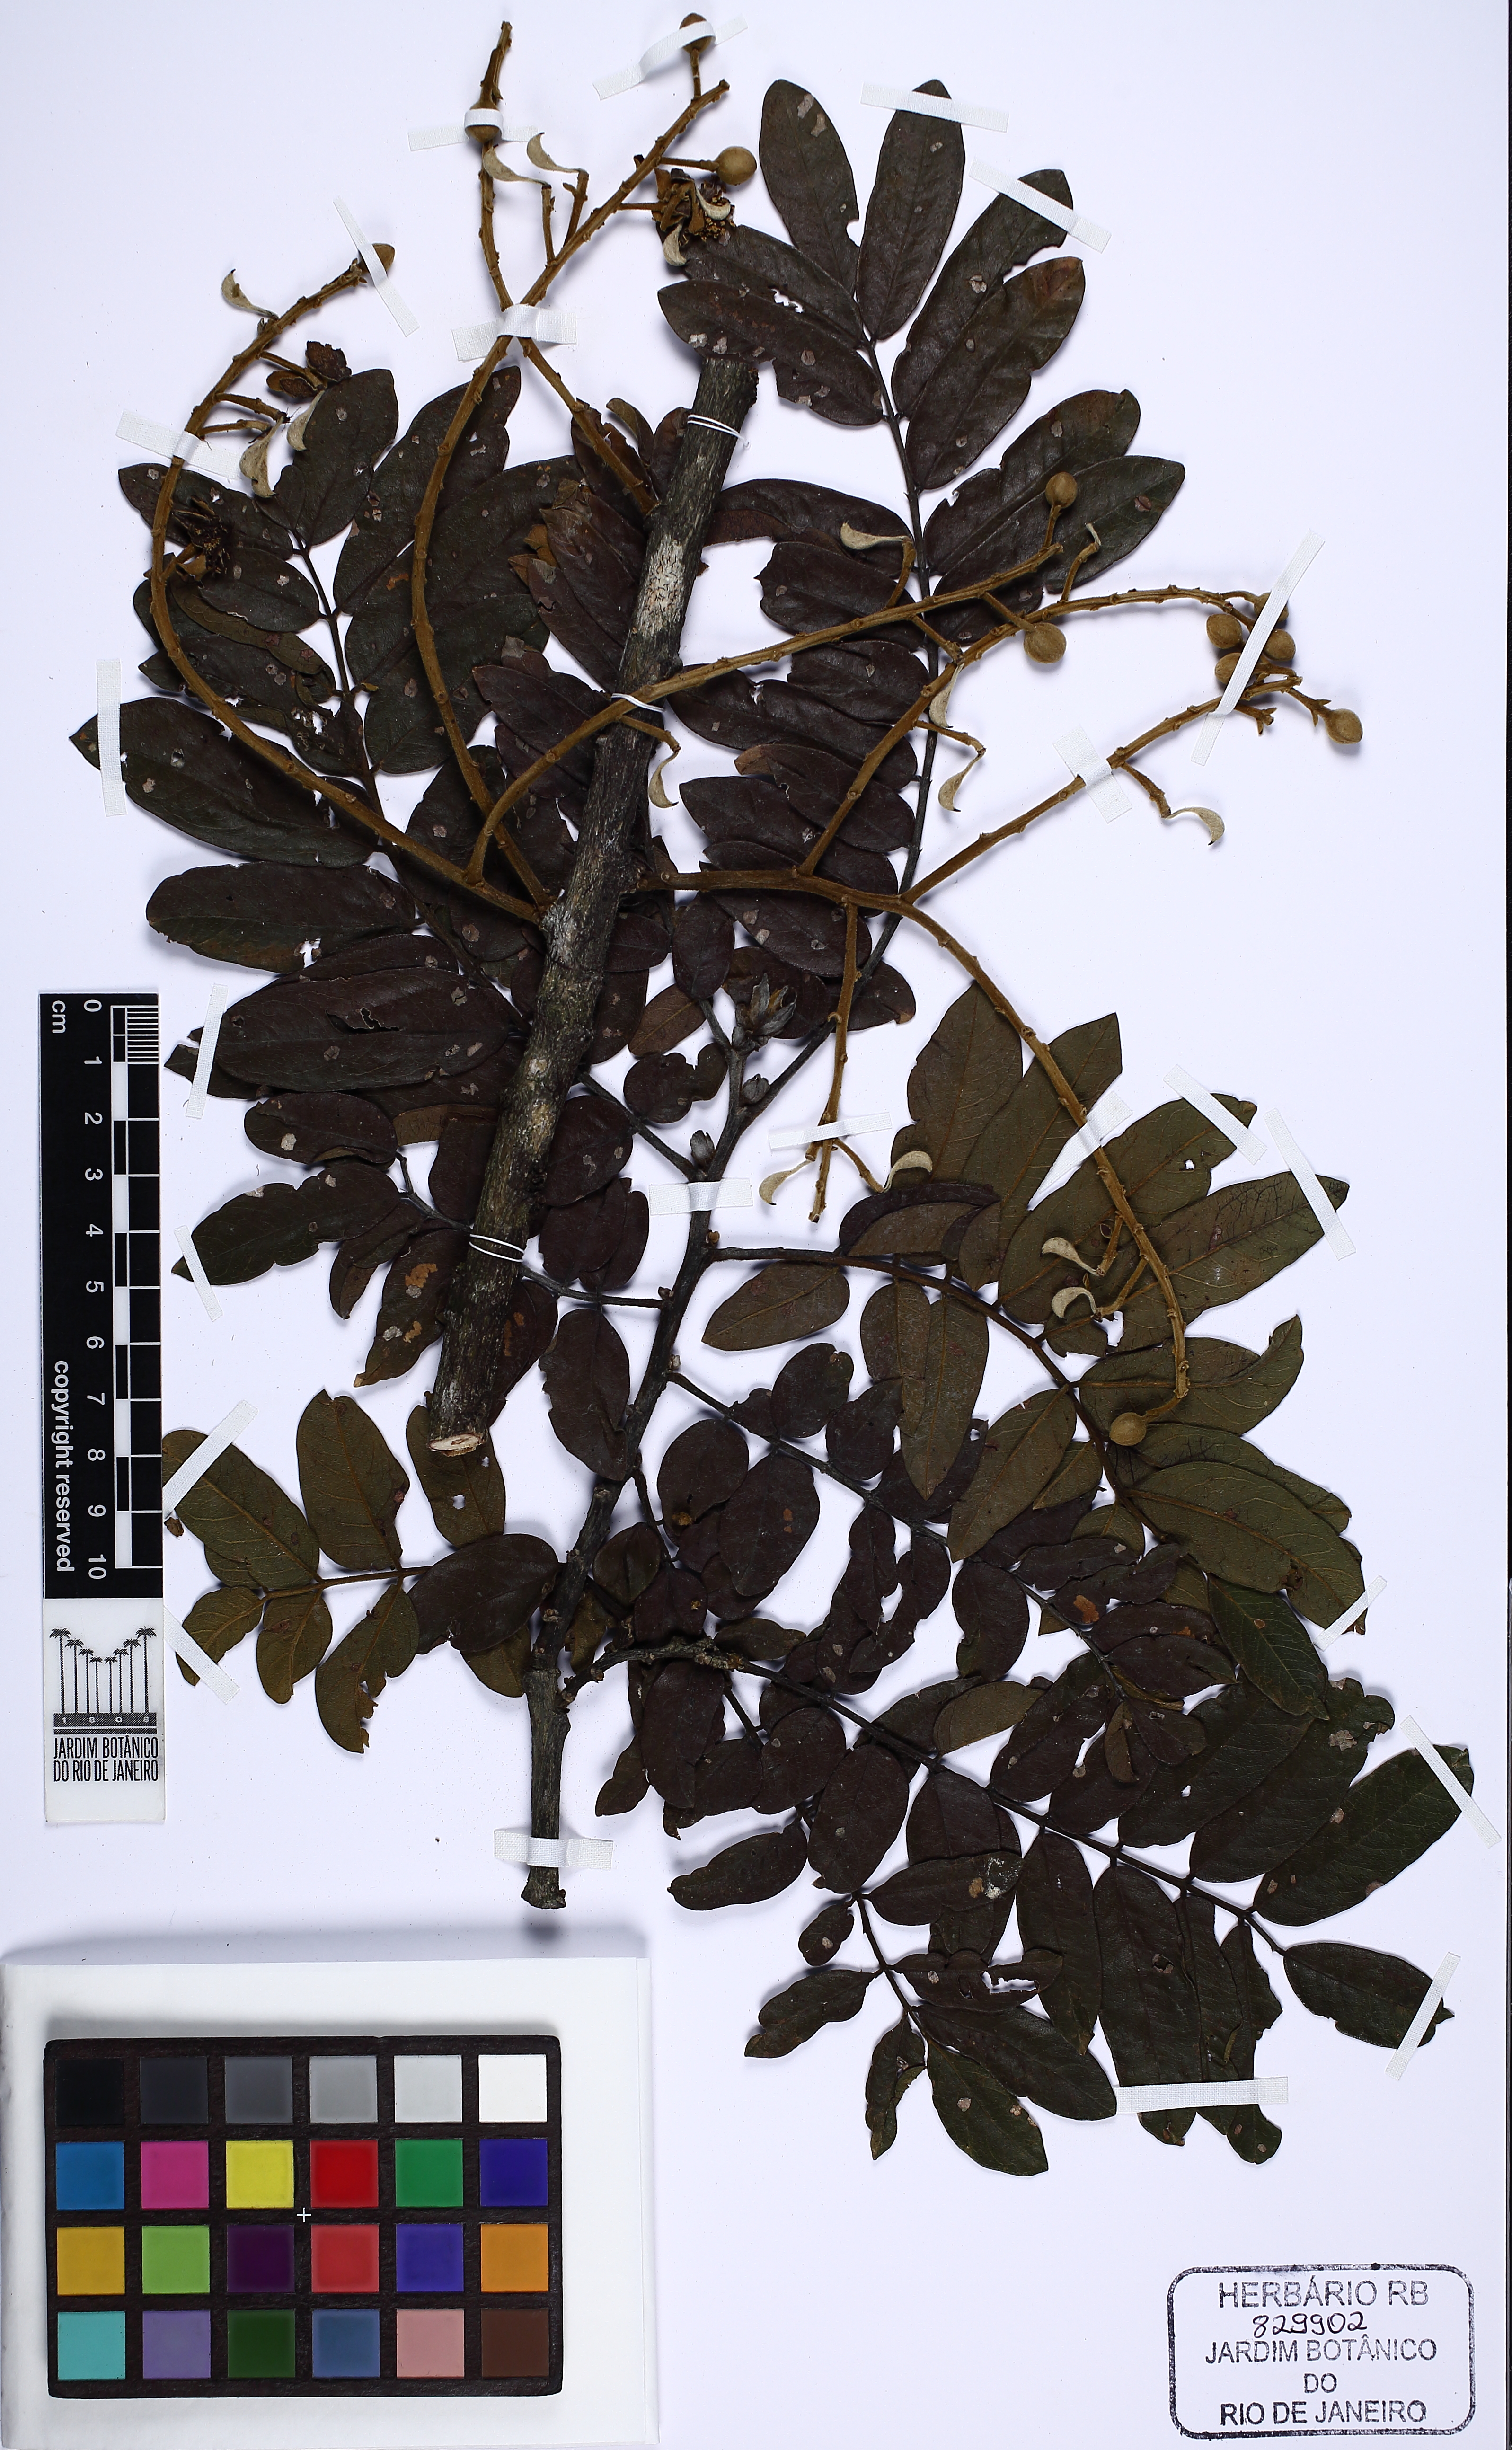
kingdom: Plantae
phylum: Tracheophyta
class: Magnoliopsida
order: Fabales
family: Fabaceae
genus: Swartzia
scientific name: Swartzia flaemingii
